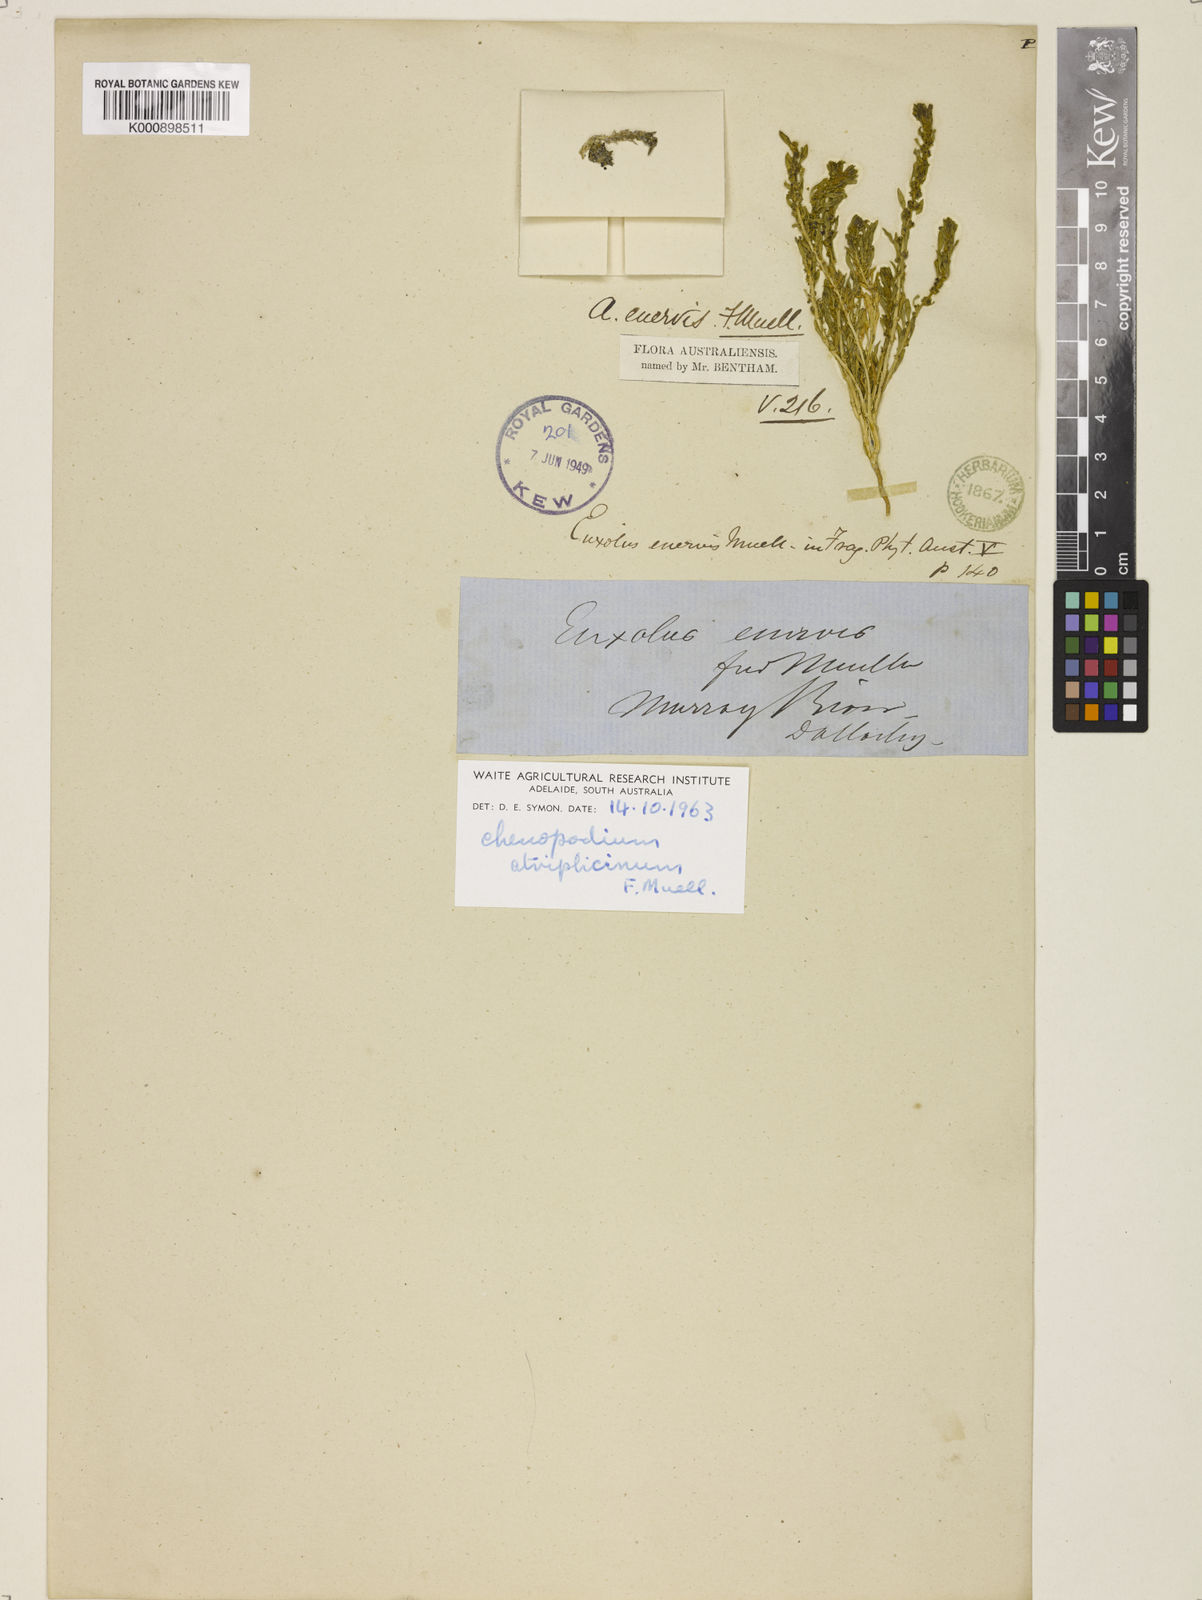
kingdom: Plantae
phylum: Tracheophyta
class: Magnoliopsida
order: Caryophyllales
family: Amaranthaceae
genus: Blitum
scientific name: Blitum atriplicinum
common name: Starry-goosefoot
